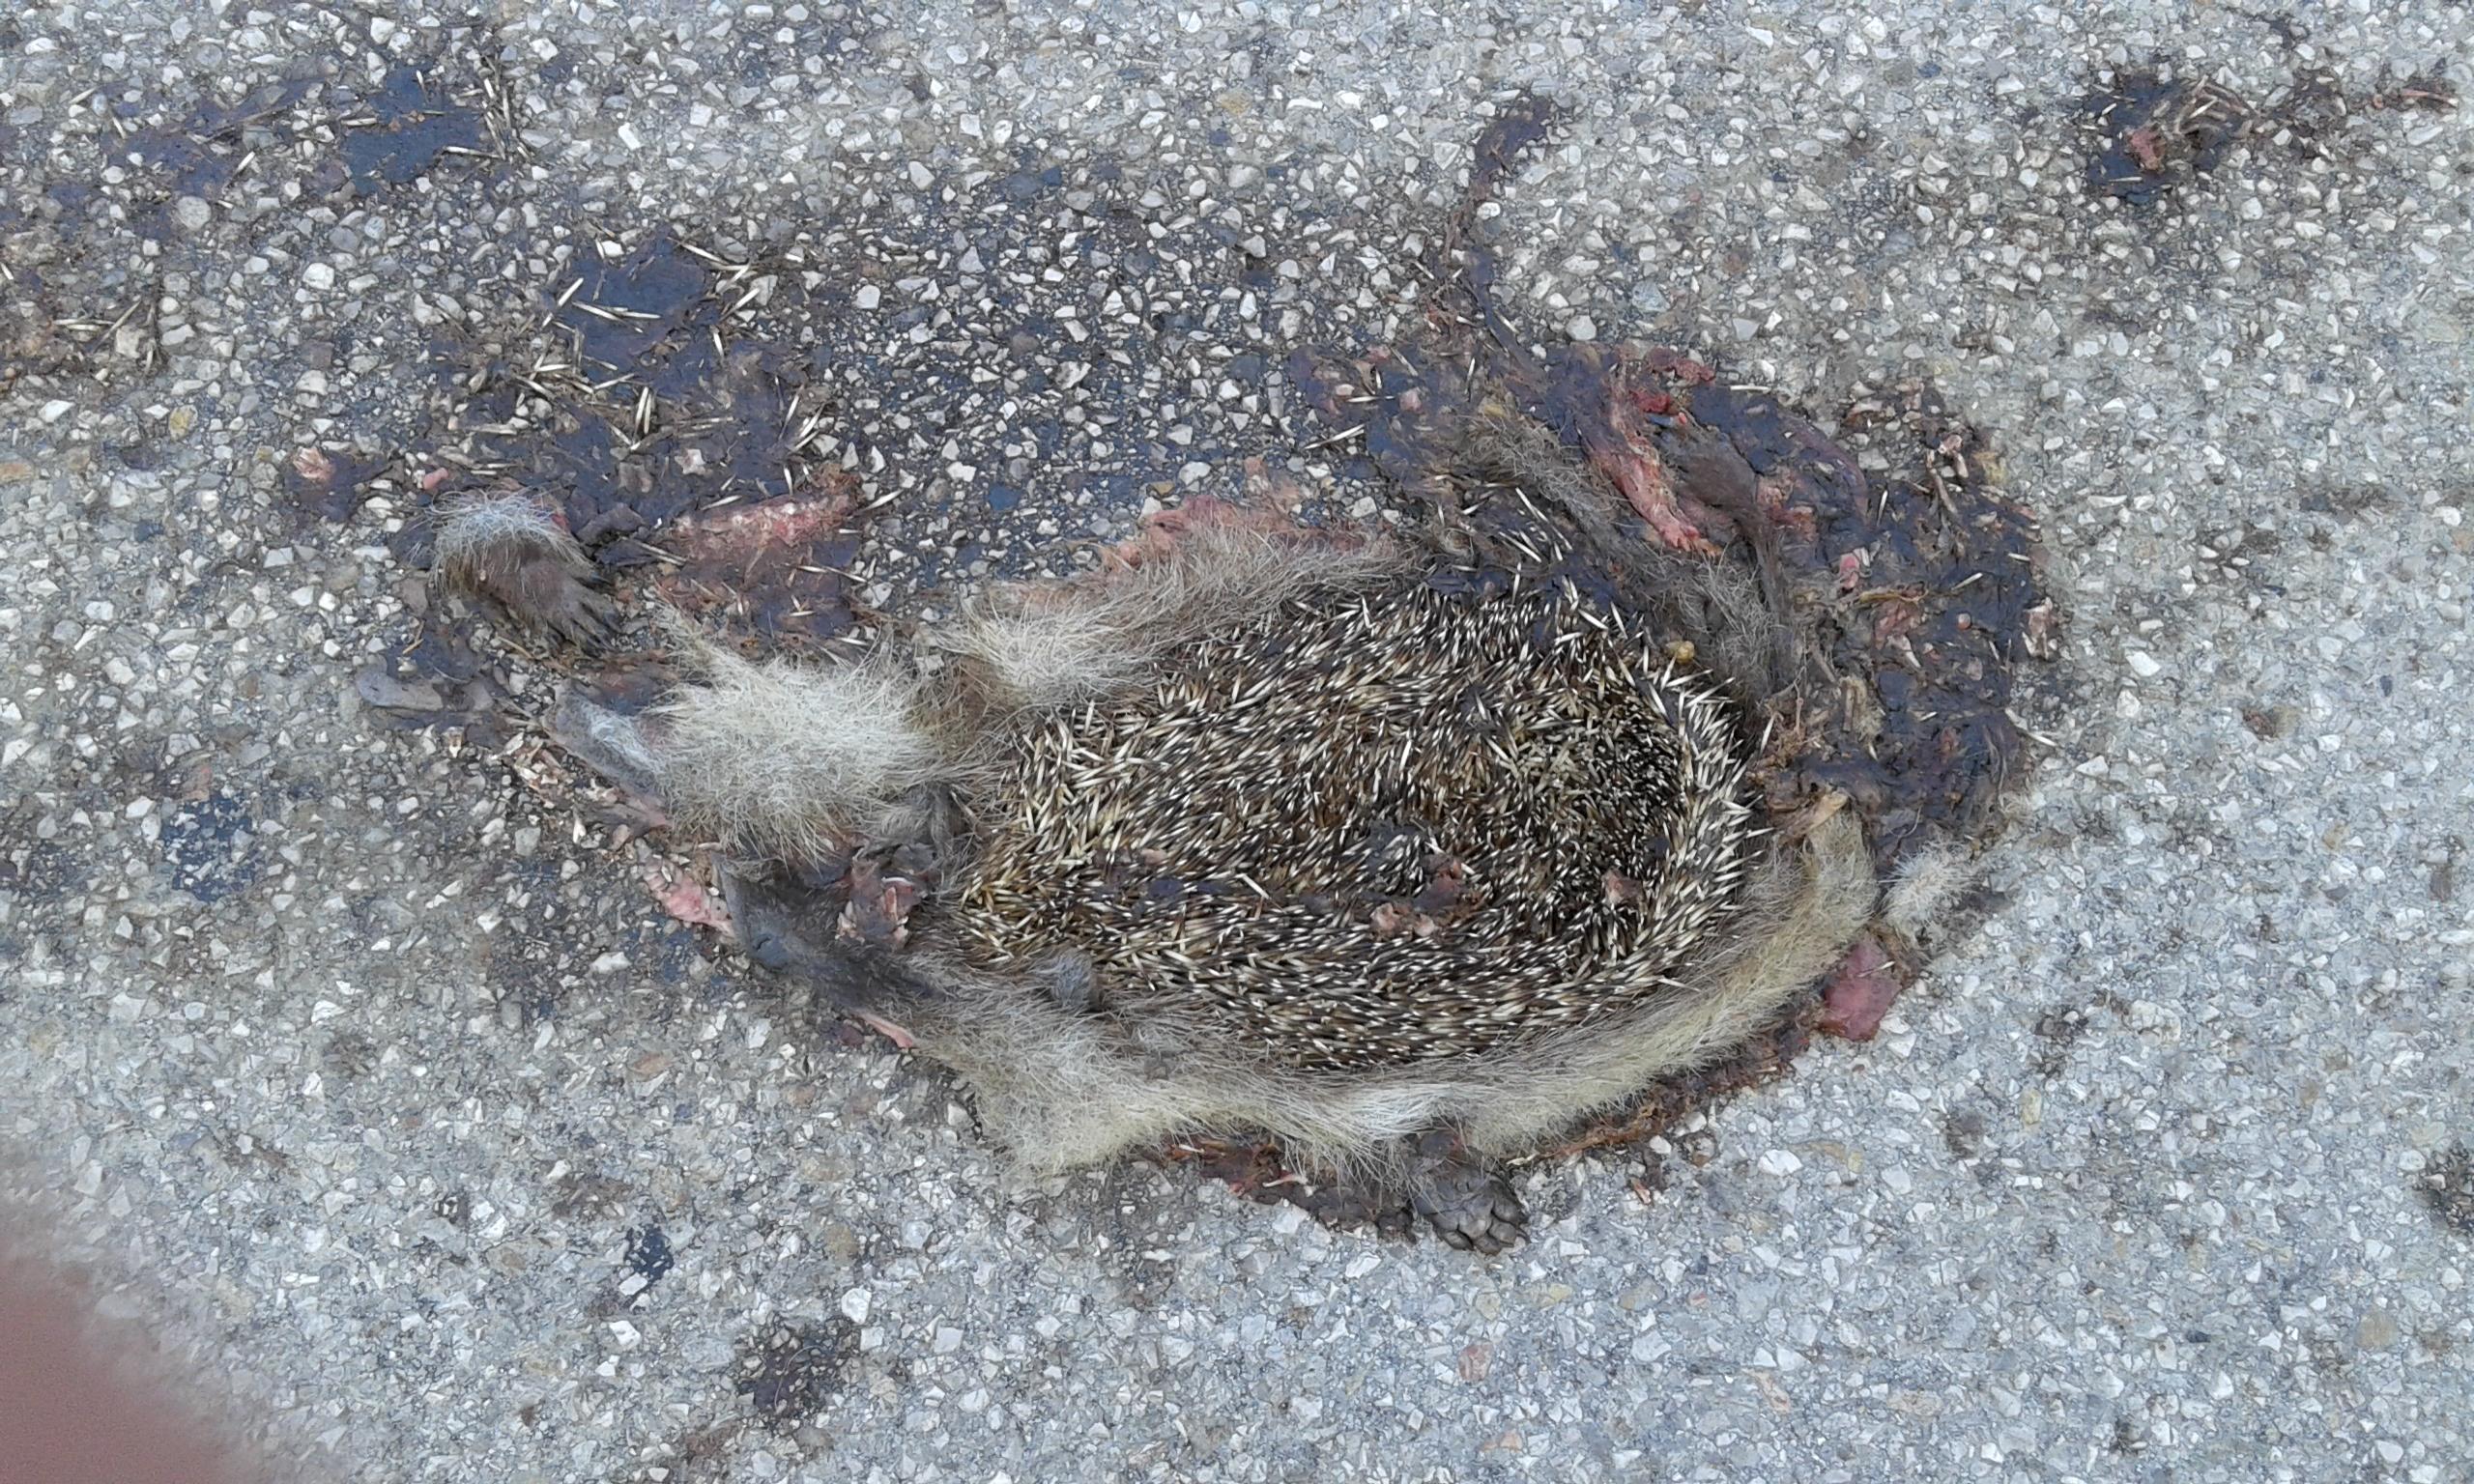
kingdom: Animalia
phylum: Chordata
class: Mammalia
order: Erinaceomorpha
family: Erinaceidae
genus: Erinaceus
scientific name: Erinaceus
